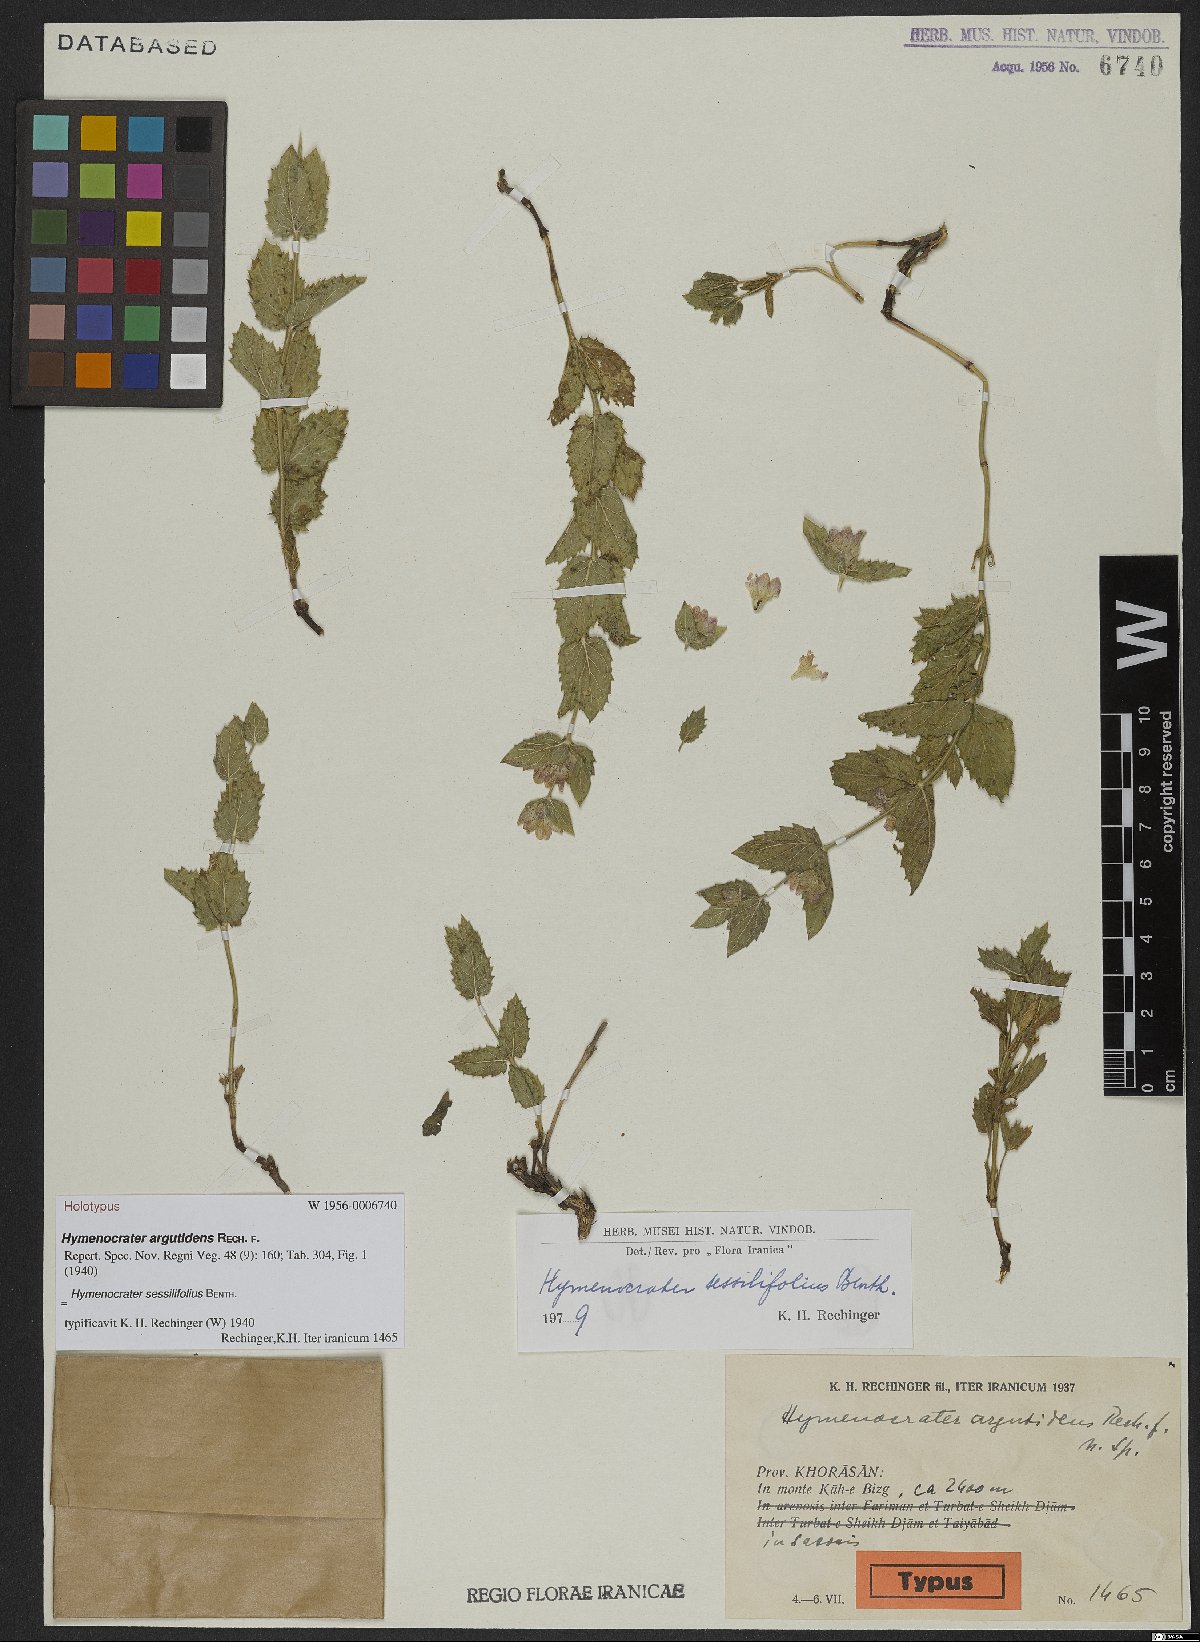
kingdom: Plantae
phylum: Tracheophyta
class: Magnoliopsida
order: Lamiales
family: Lamiaceae
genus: Nepeta
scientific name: Nepeta argutidens
